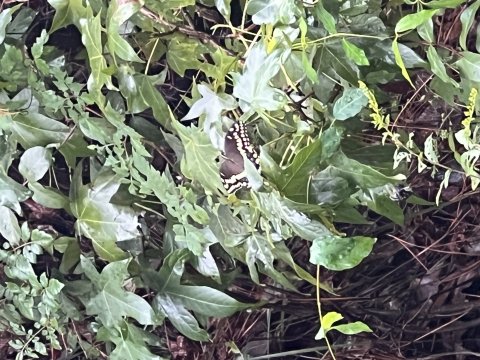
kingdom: Animalia
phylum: Arthropoda
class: Insecta
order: Lepidoptera
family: Papilionidae
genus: Pterourus
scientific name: Pterourus palamedes
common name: Palamedes Swallowtail
